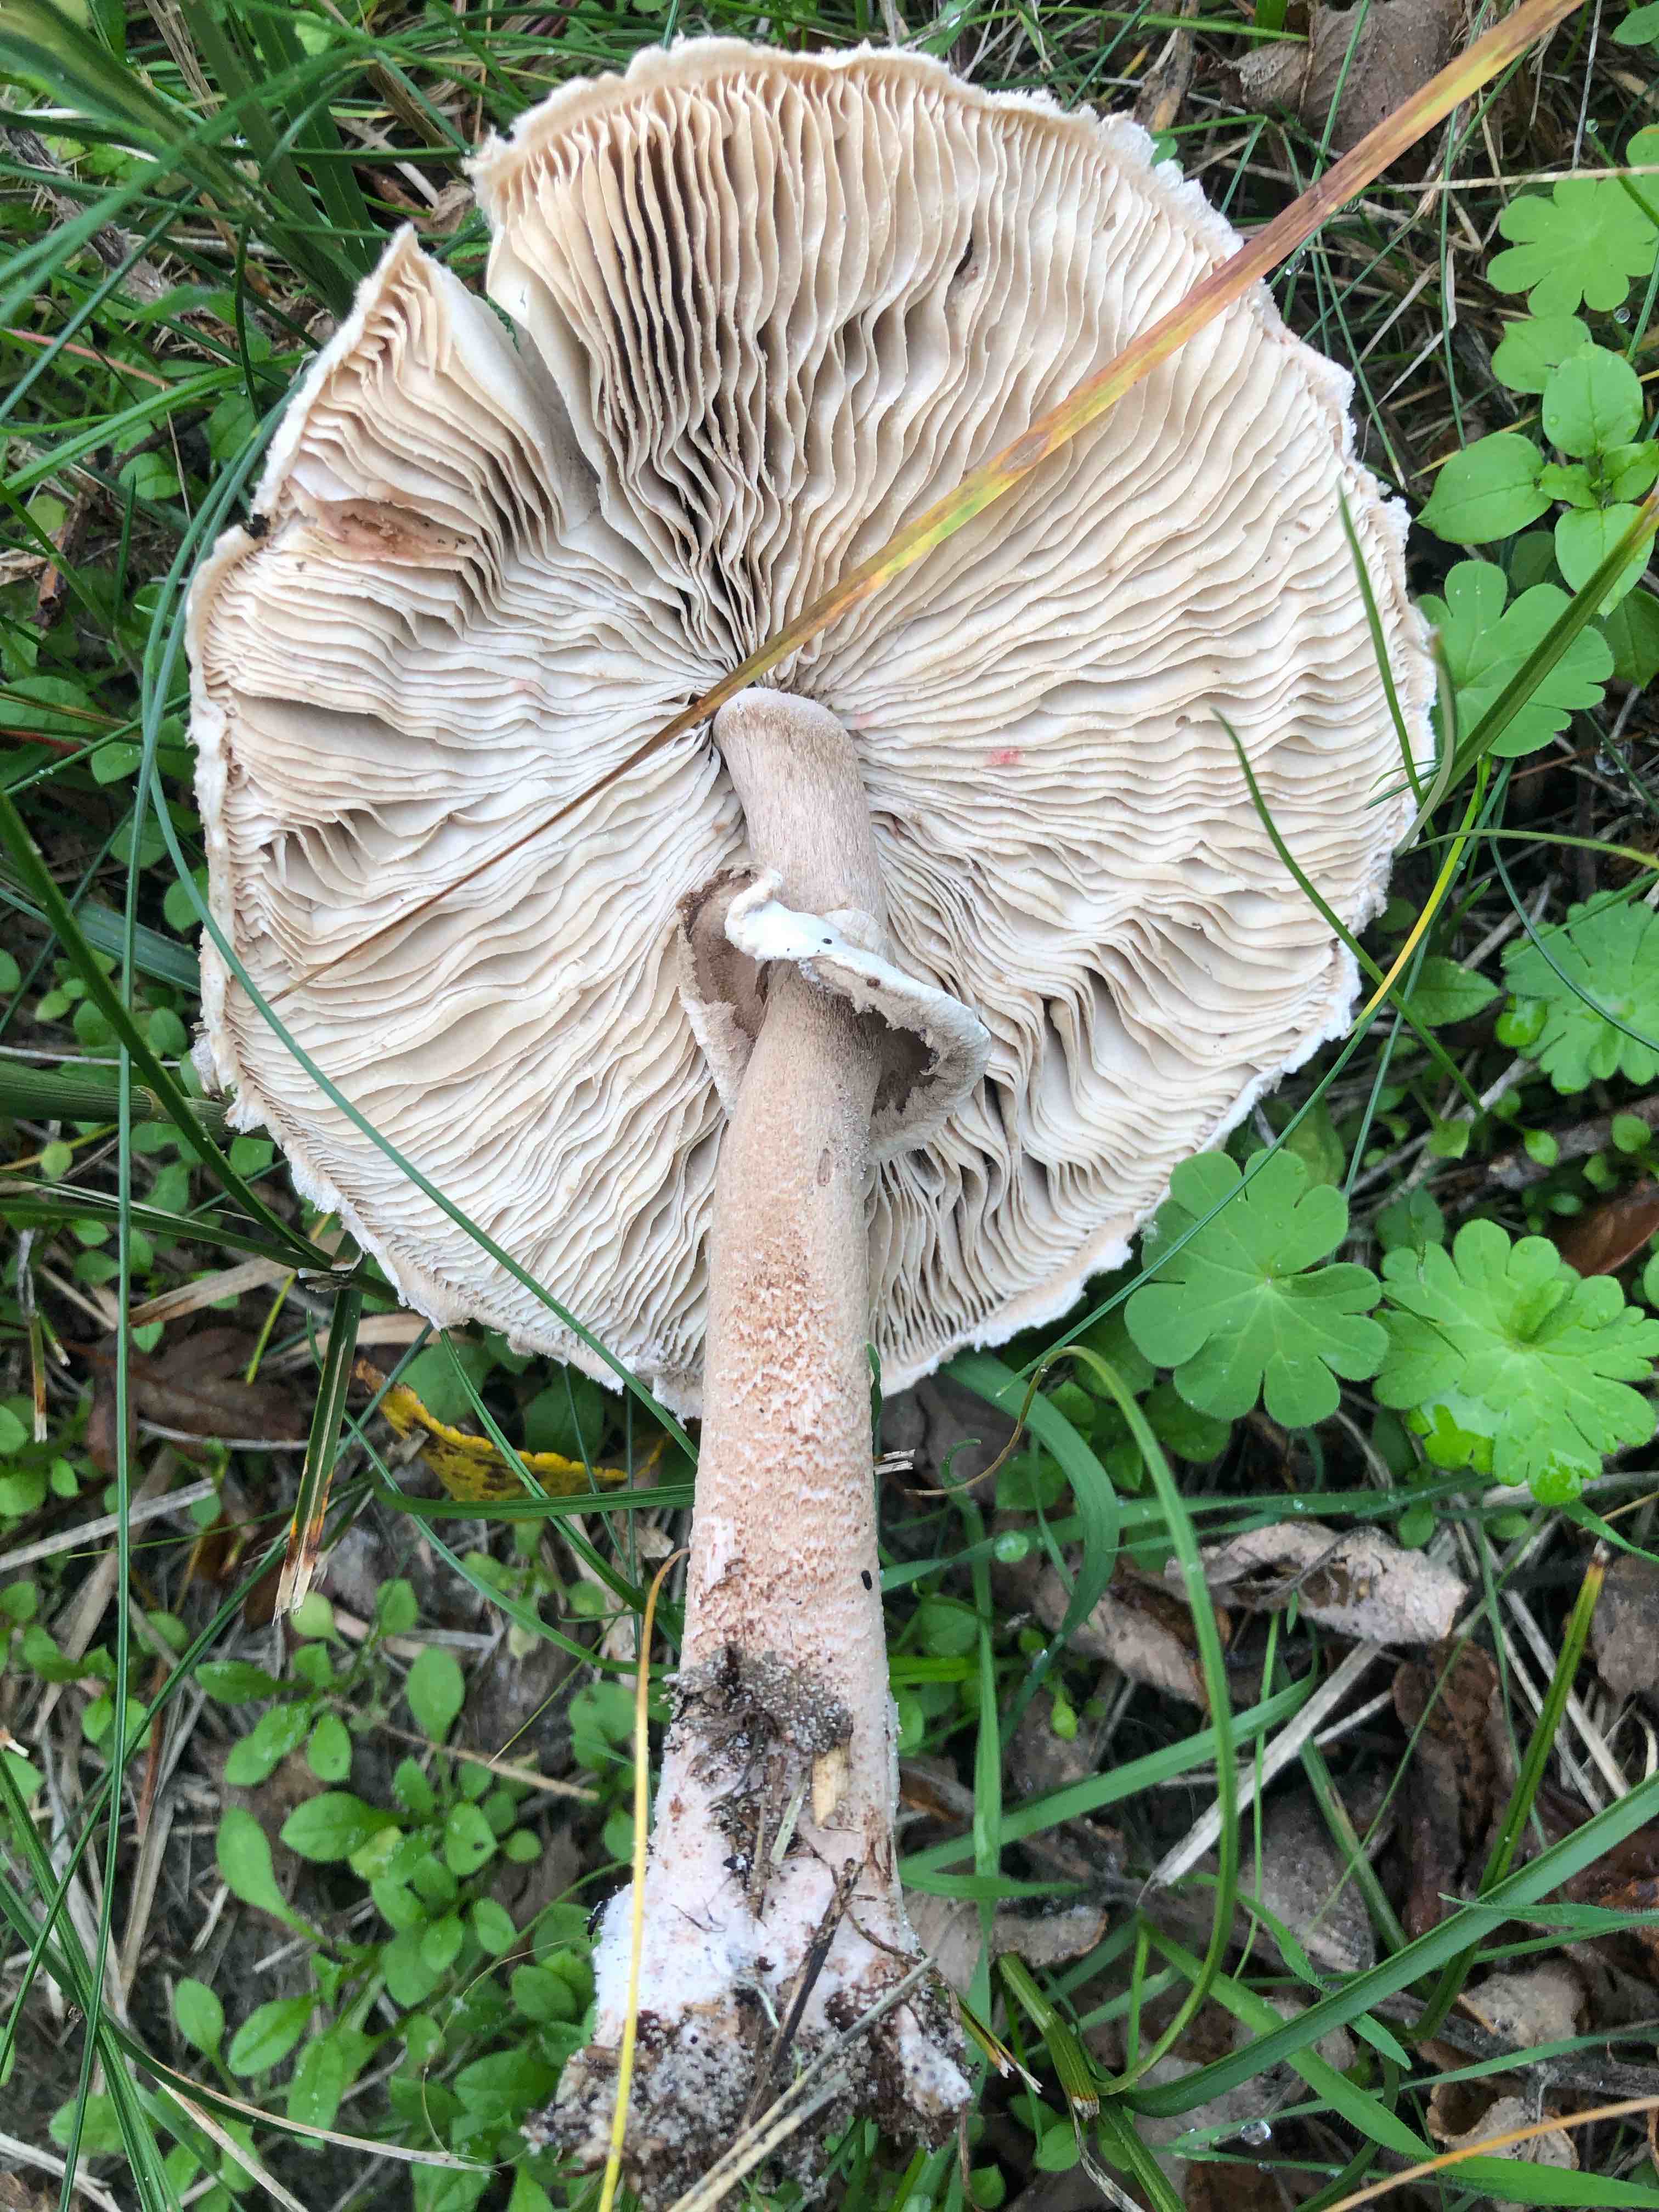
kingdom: Fungi
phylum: Basidiomycota
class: Agaricomycetes
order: Agaricales
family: Agaricaceae
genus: Macrolepiota
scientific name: Macrolepiota procera
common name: stor kæmpeparasolhat
